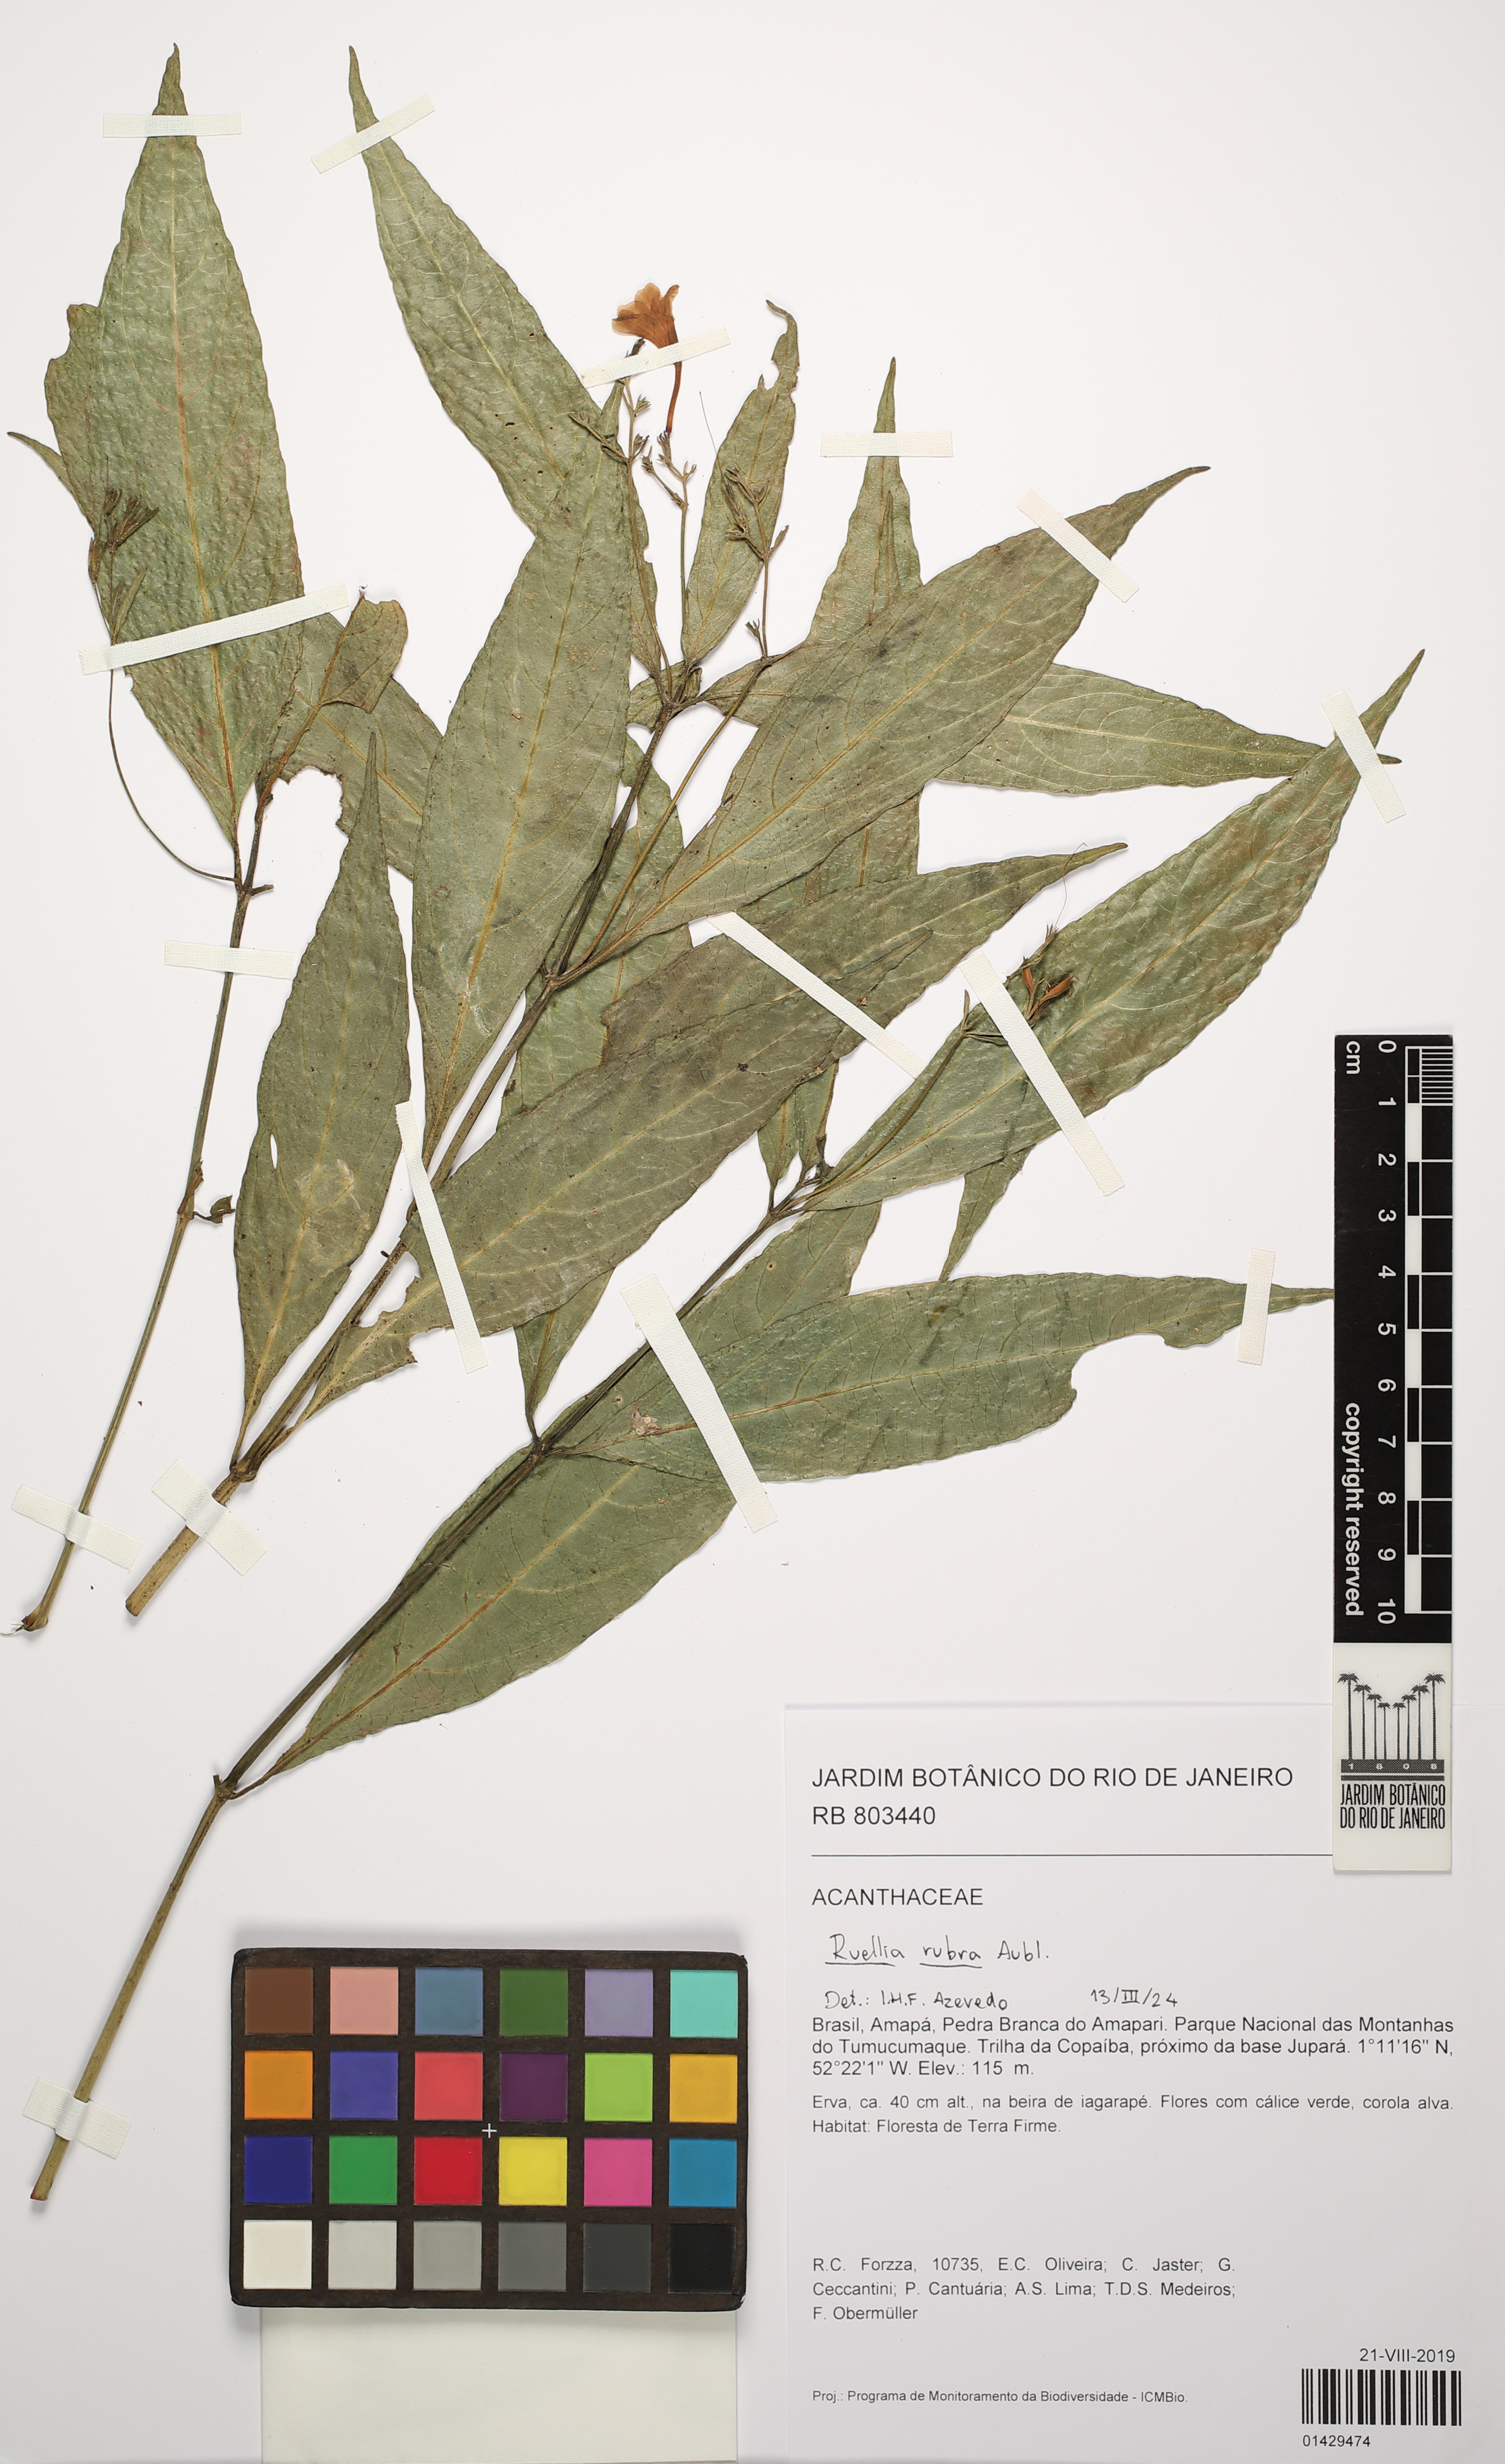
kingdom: Plantae
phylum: Tracheophyta
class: Magnoliopsida
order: Lamiales
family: Acanthaceae
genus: Ruellia
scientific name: Ruellia rubra
